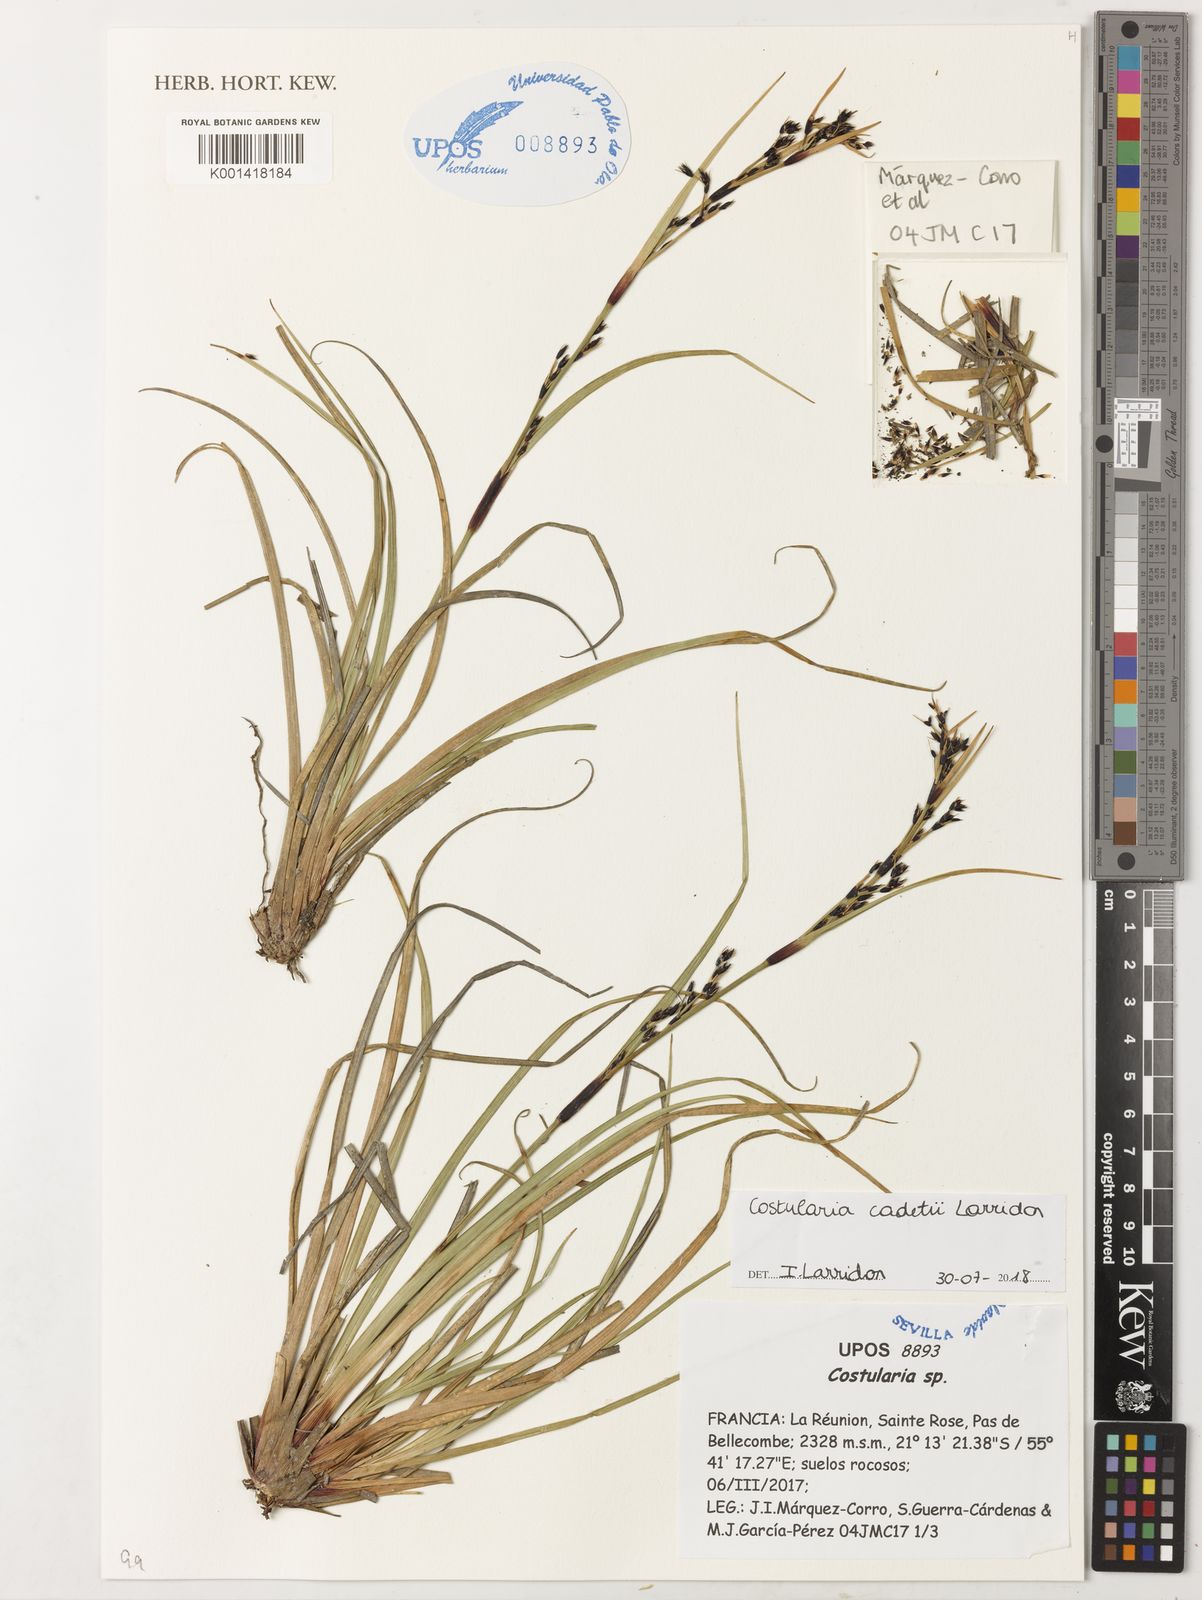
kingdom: Plantae
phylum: Tracheophyta
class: Liliopsida
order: Poales
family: Cyperaceae
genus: Costularia
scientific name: Costularia cadetii
